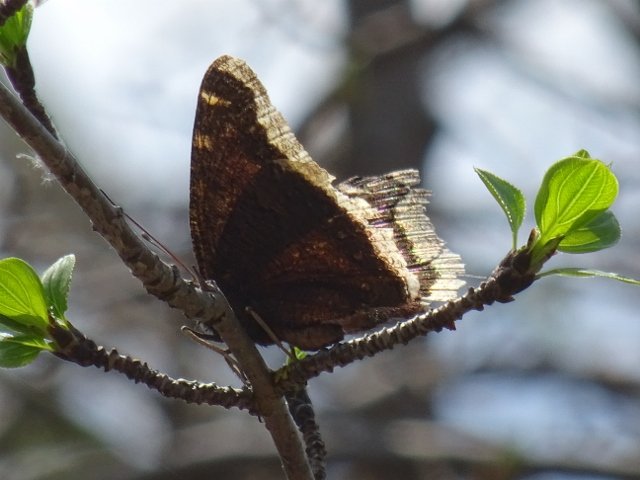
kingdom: Animalia
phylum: Arthropoda
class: Insecta
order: Lepidoptera
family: Nymphalidae
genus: Nymphalis
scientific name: Nymphalis antiopa
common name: Mourning Cloak
